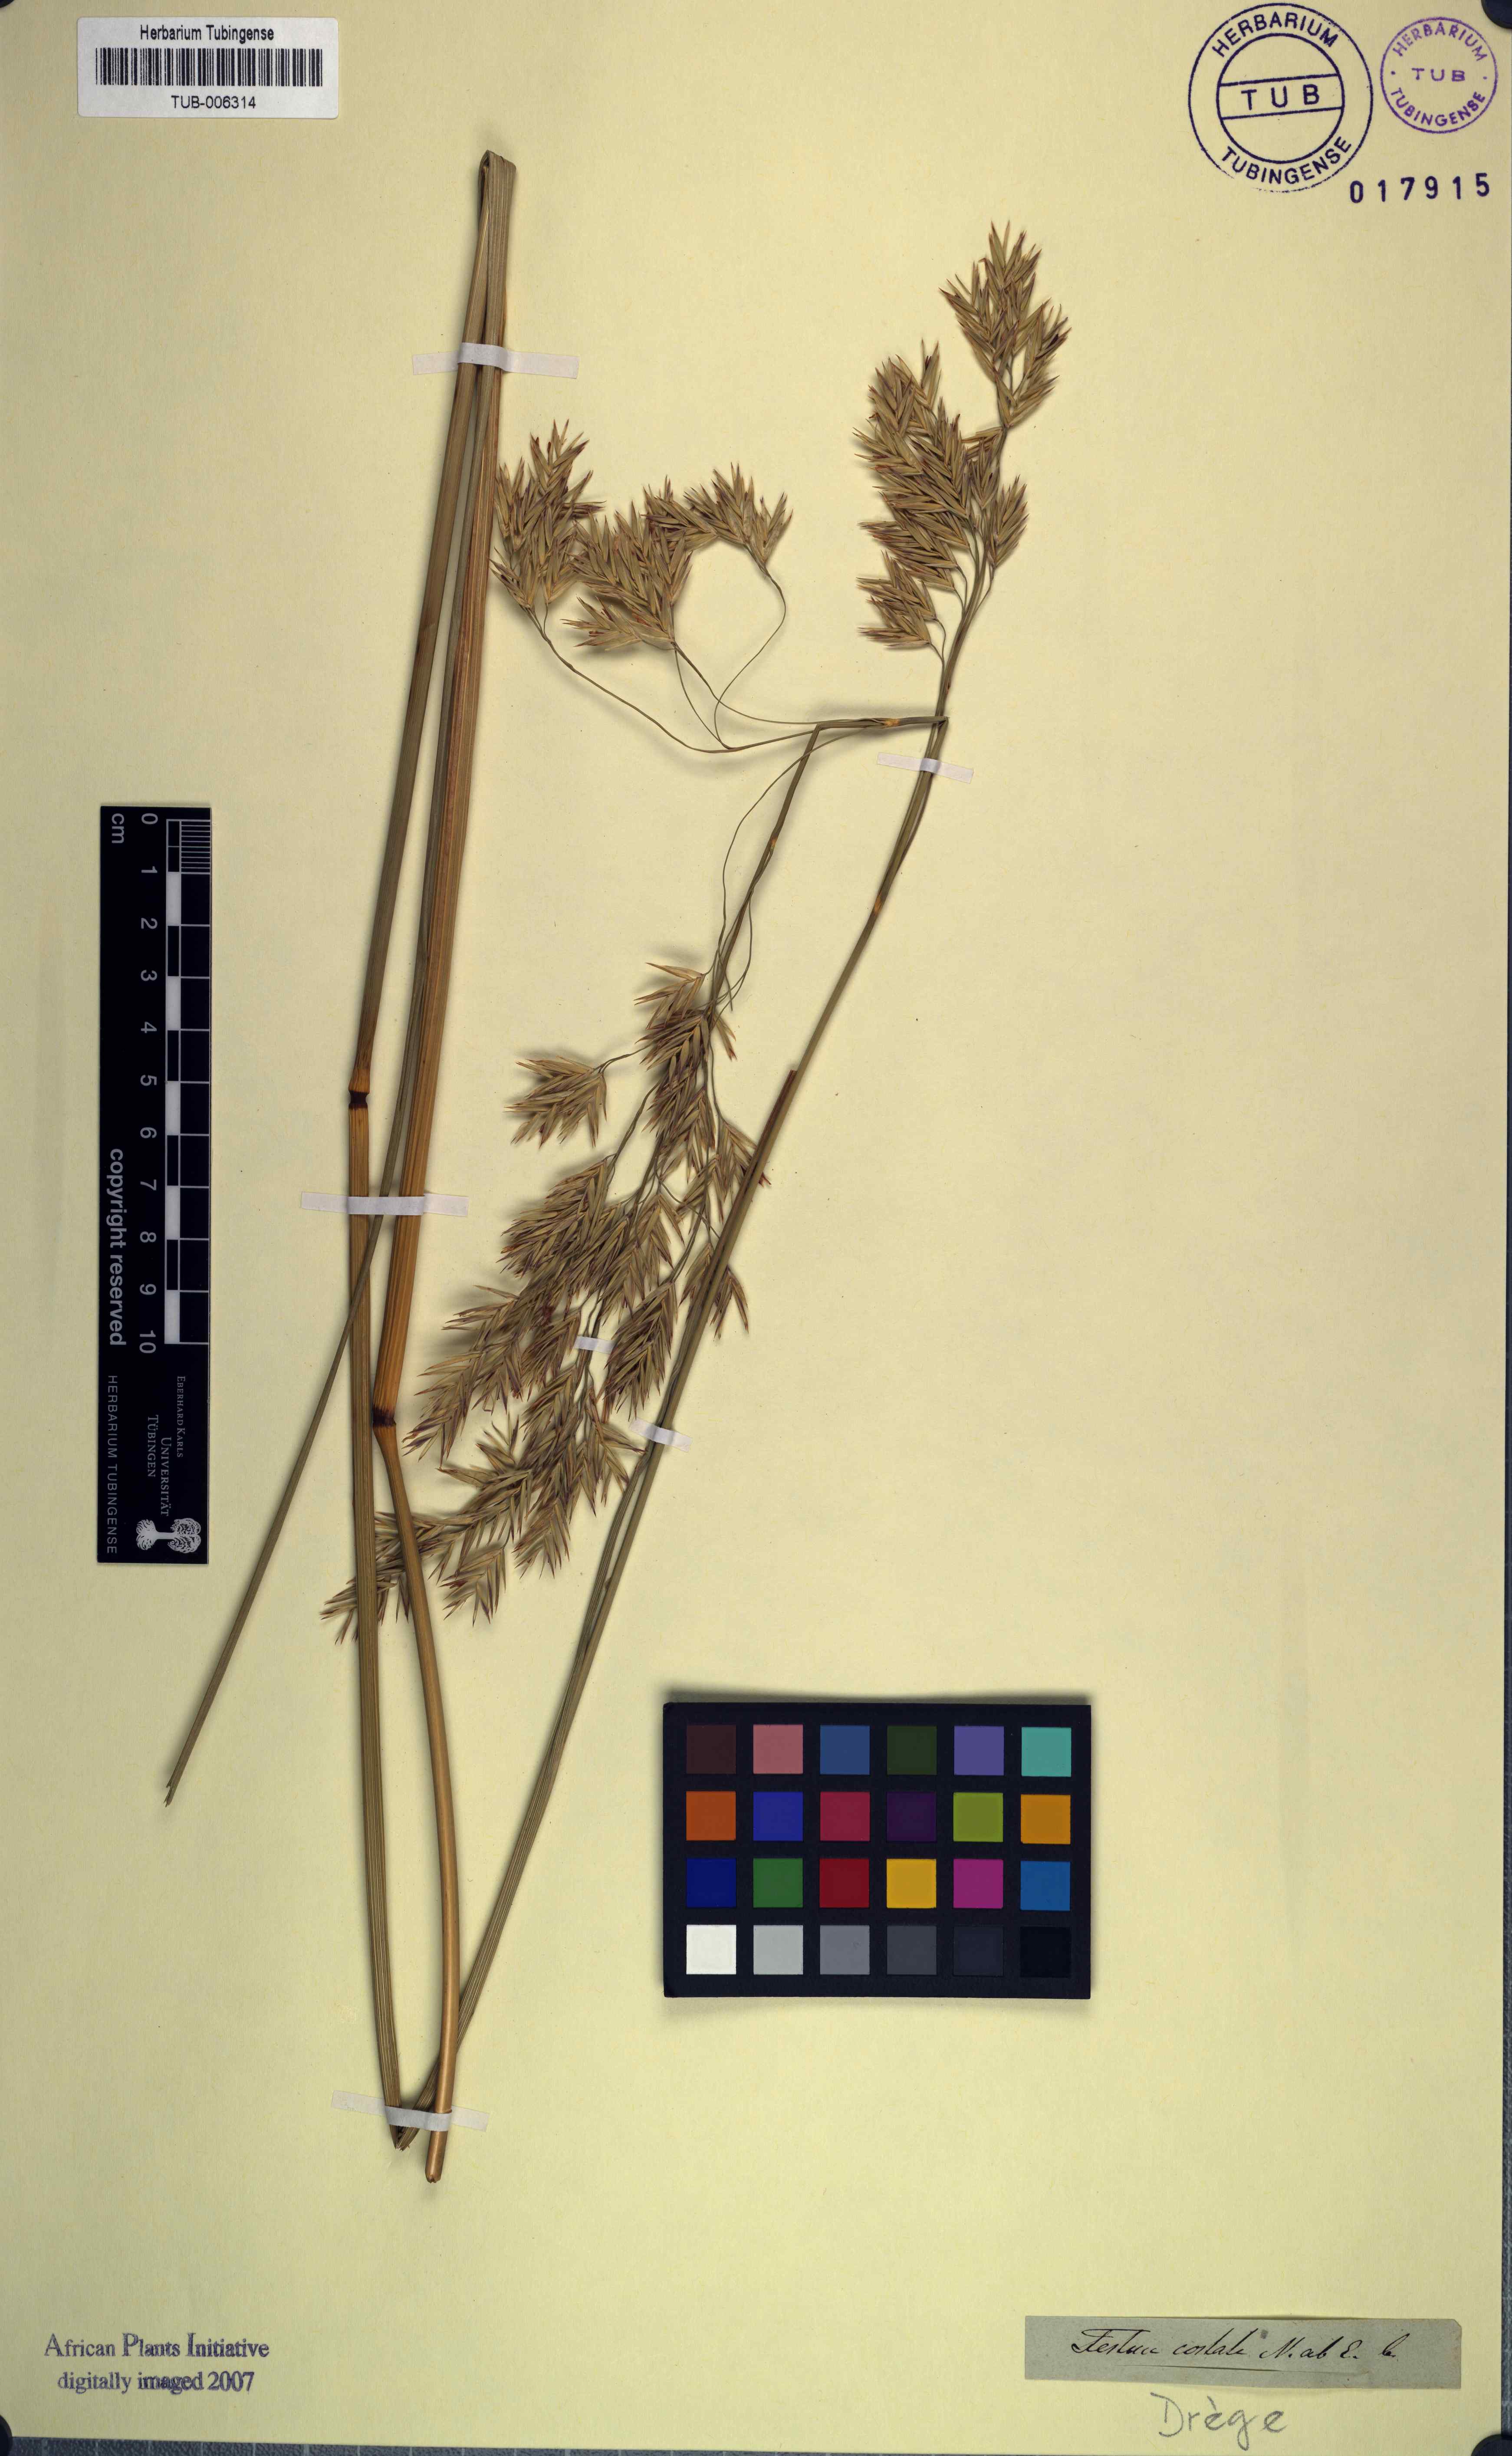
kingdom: Plantae
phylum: Tracheophyta
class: Liliopsida
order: Poales
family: Poaceae
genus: Festuca
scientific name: Festuca costata
